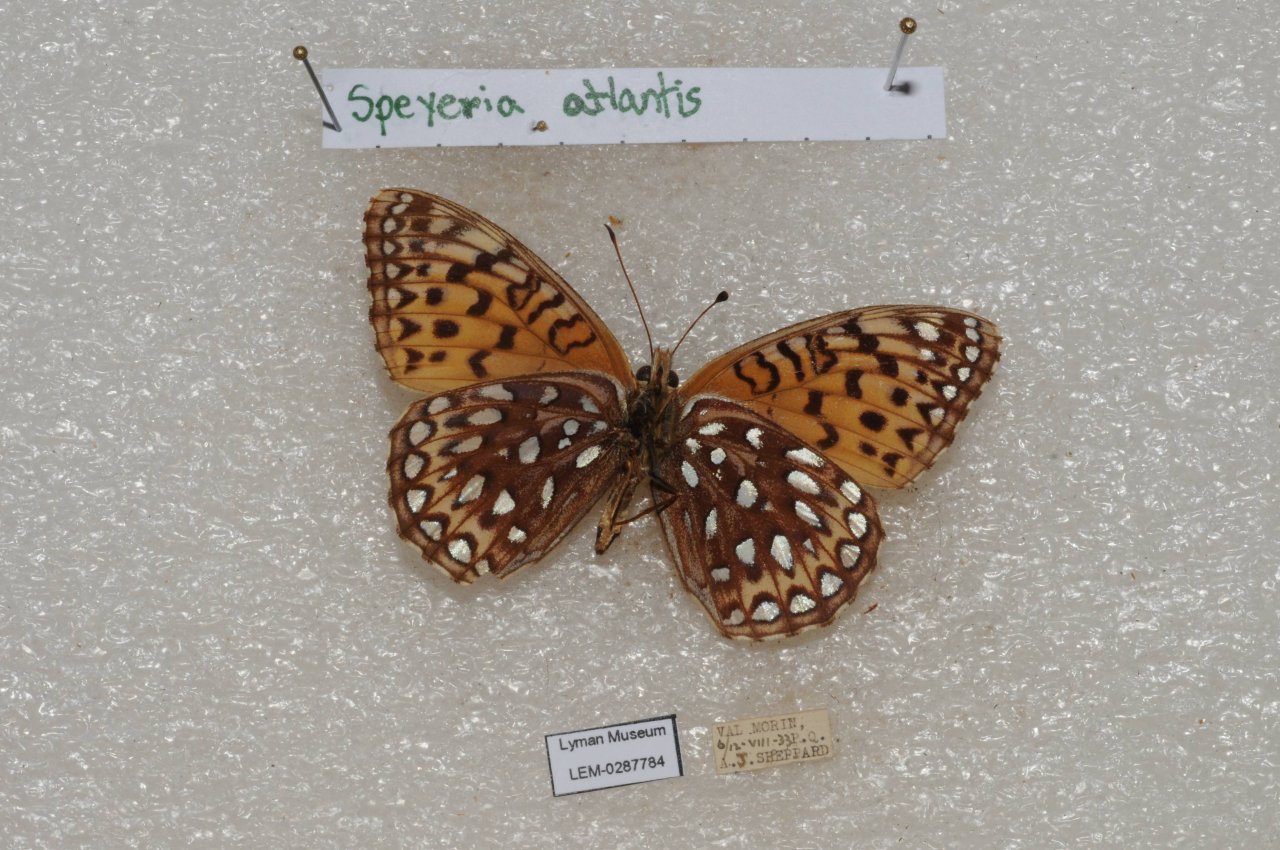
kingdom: Animalia
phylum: Arthropoda
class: Insecta
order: Lepidoptera
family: Nymphalidae
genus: Speyeria
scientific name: Speyeria atlantis
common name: Atlantis Fritillary
